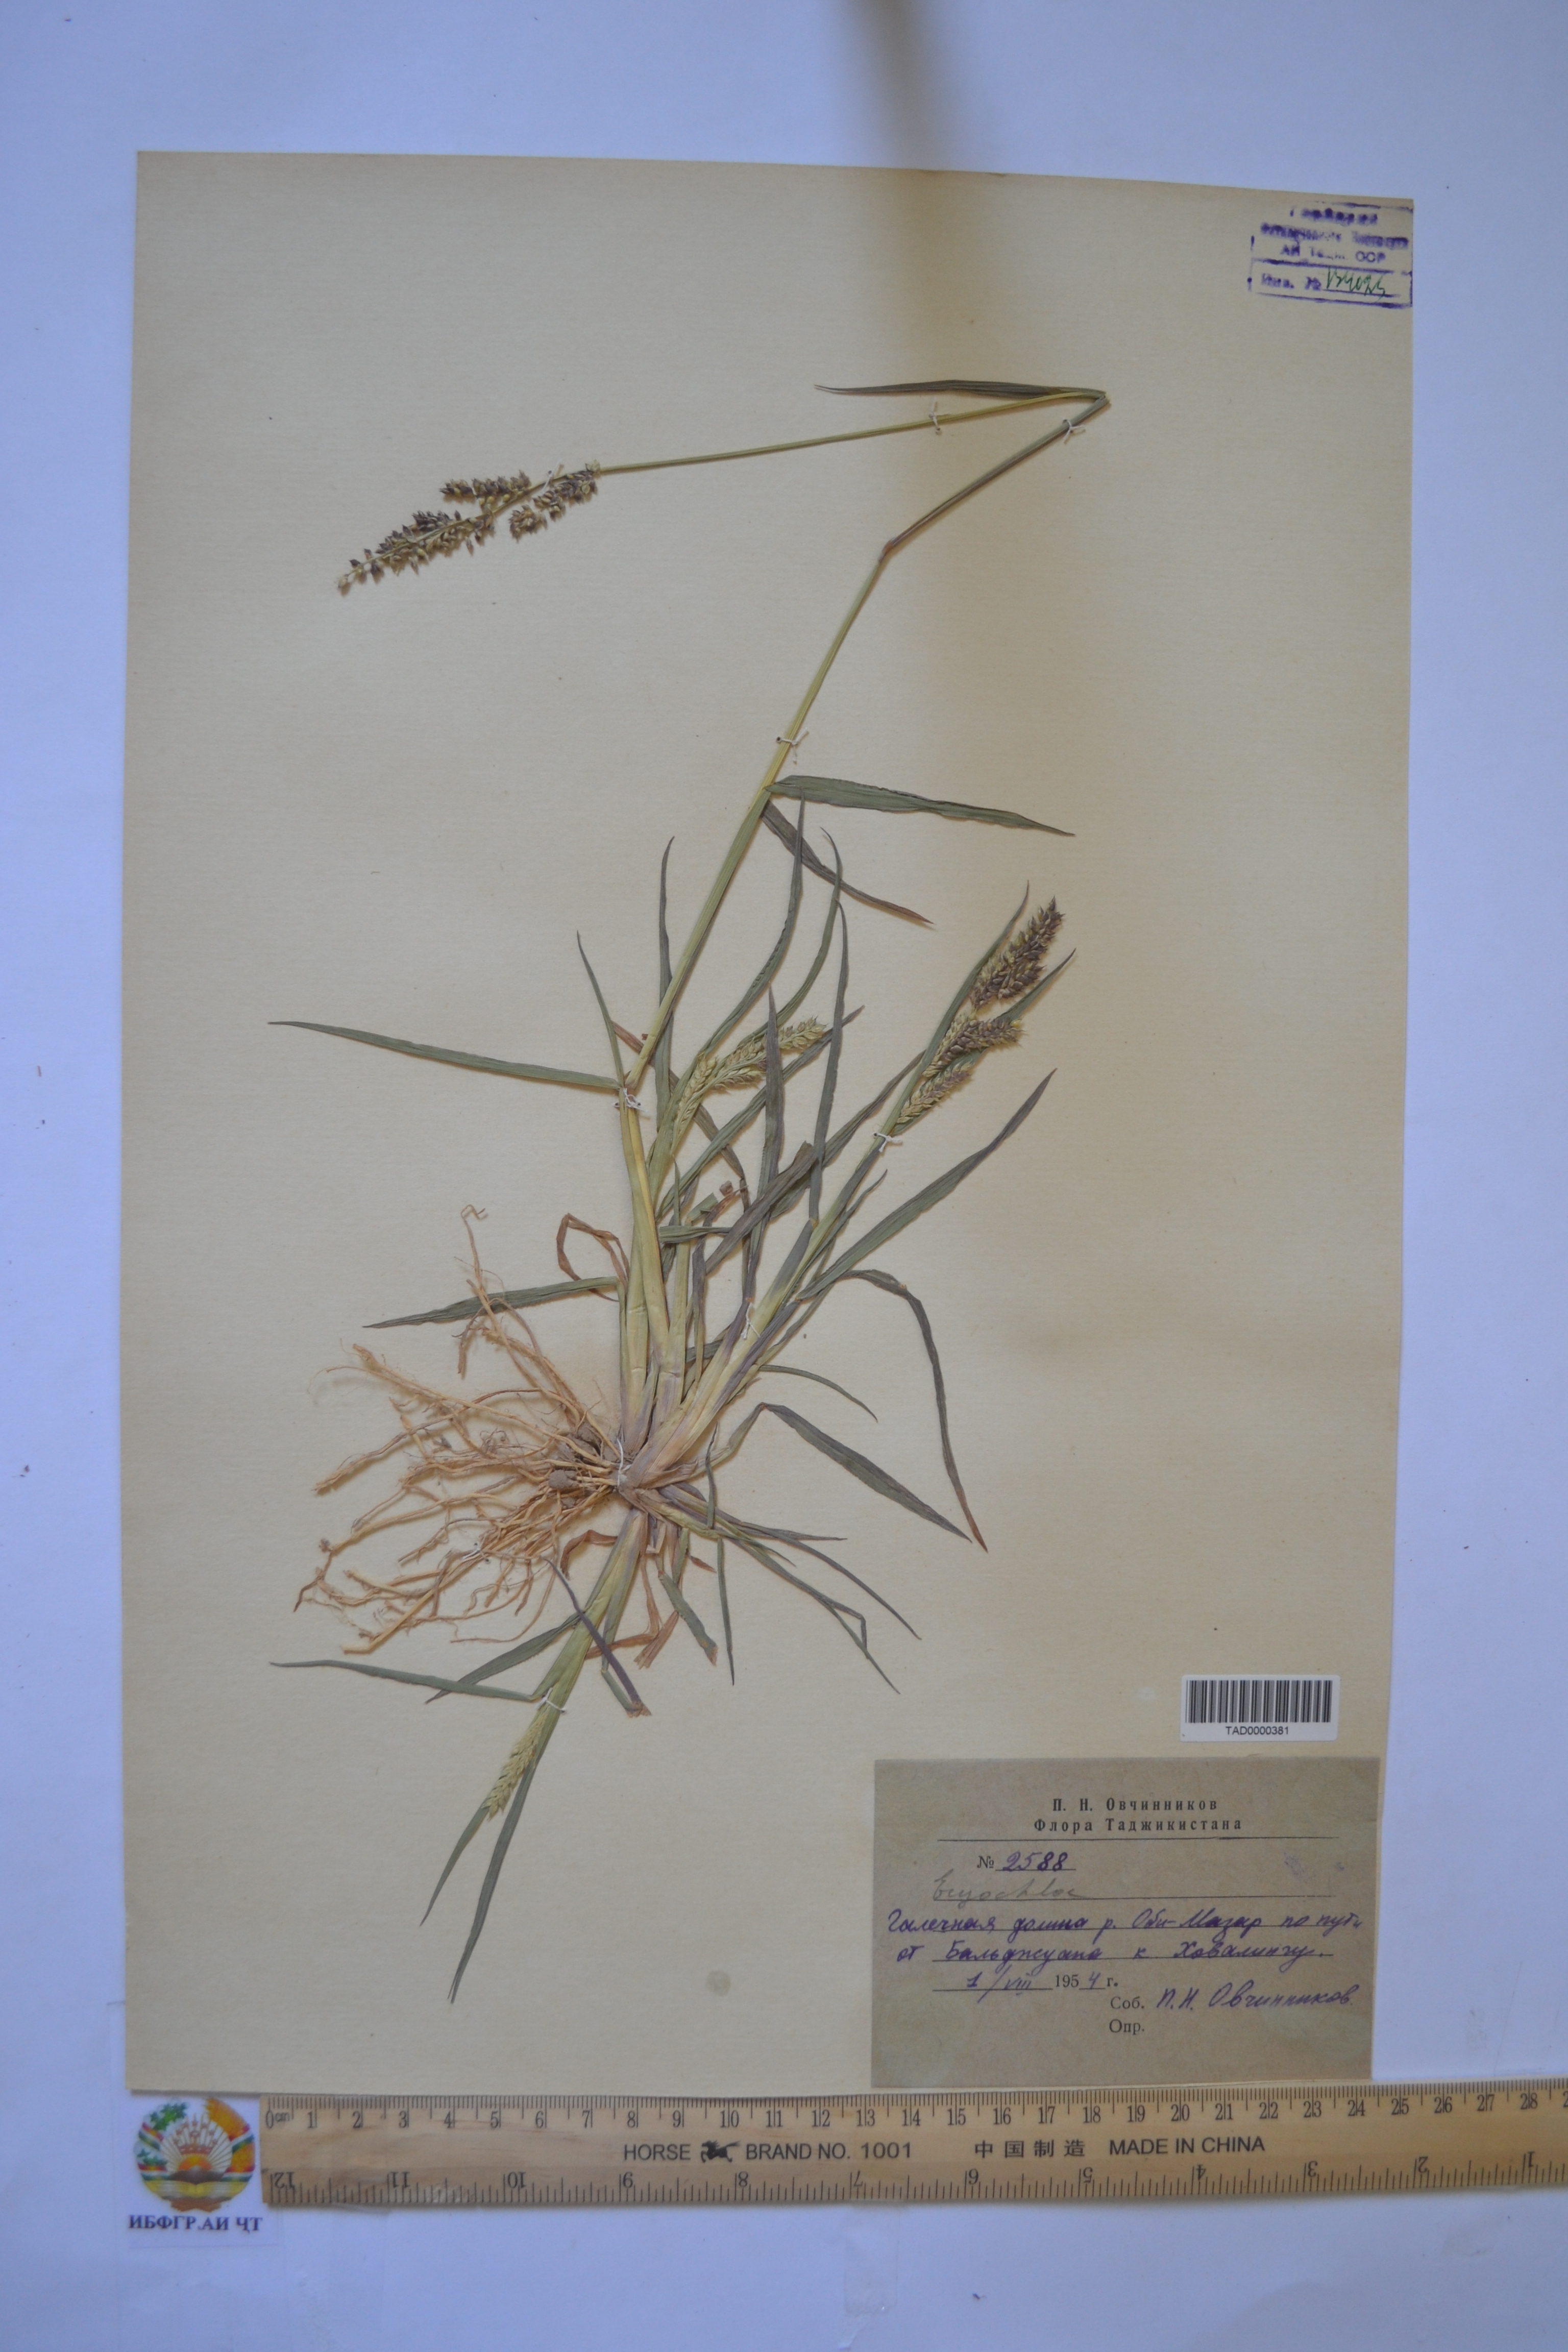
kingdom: Plantae
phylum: Tracheophyta
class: Liliopsida
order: Poales
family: Poaceae
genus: Echinochloa
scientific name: Echinochloa crus-galli
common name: Cockspur
